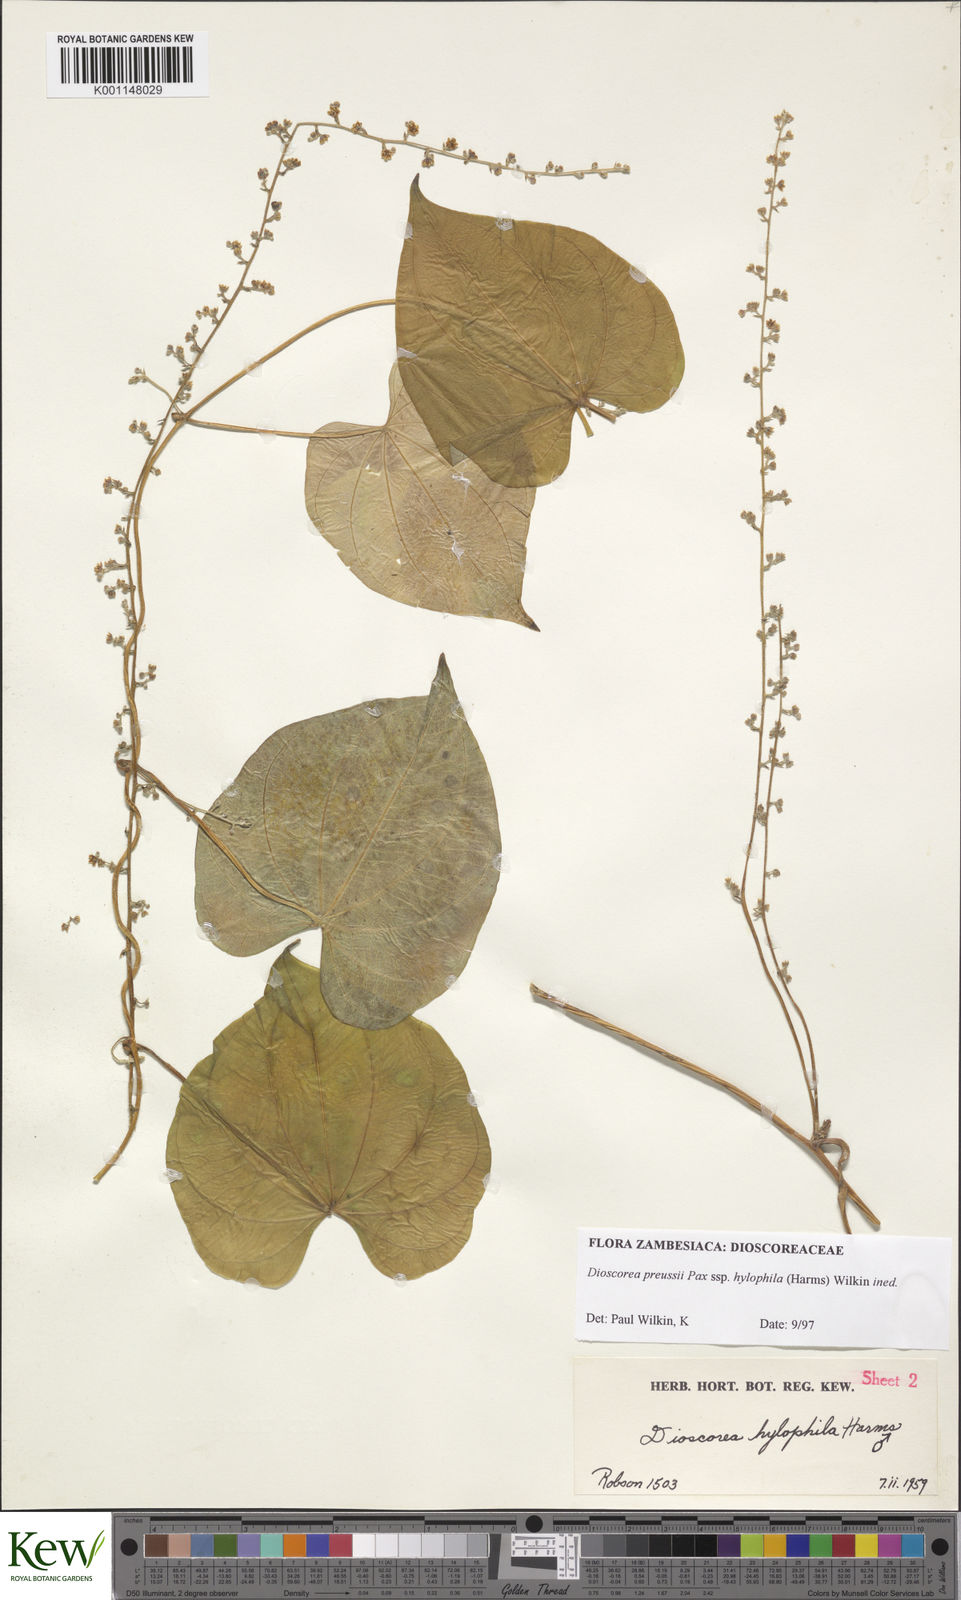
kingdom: Plantae
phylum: Tracheophyta
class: Liliopsida
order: Dioscoreales
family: Dioscoreaceae
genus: Dioscorea
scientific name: Dioscorea preussii
